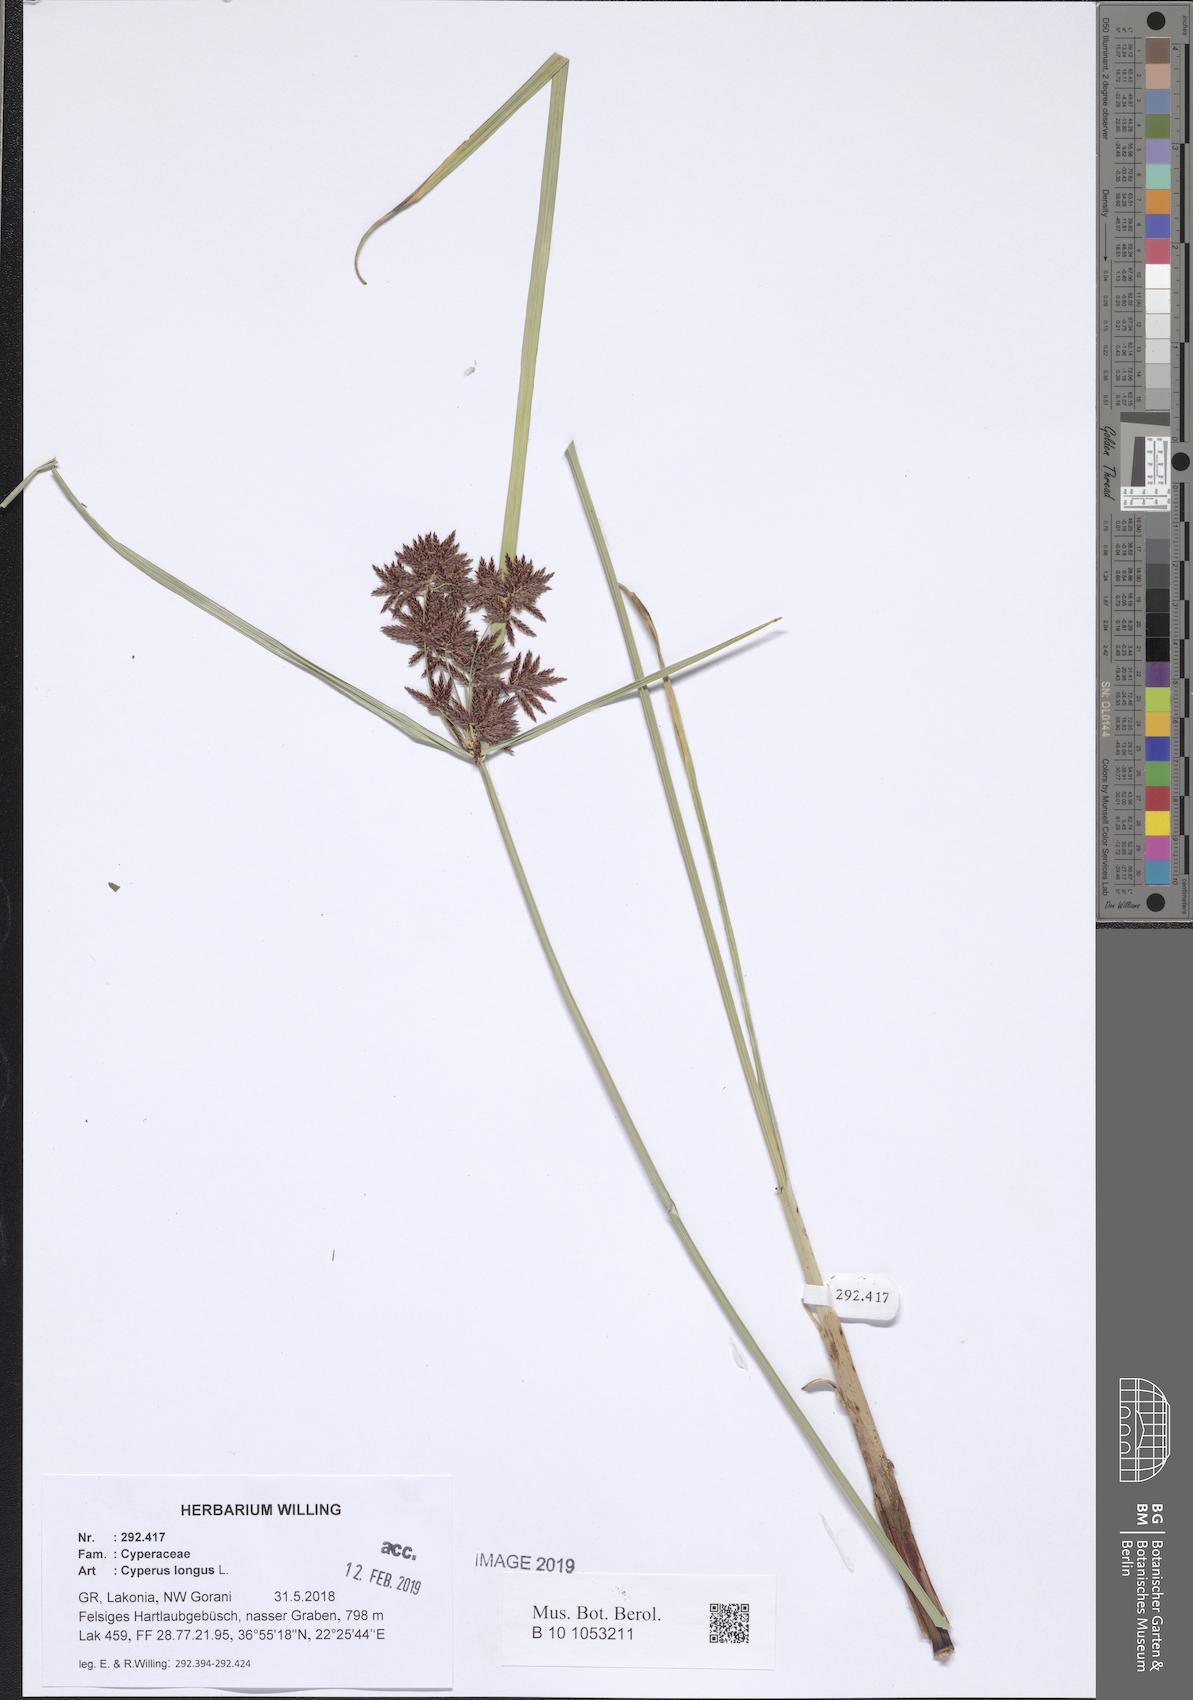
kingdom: Plantae
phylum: Tracheophyta
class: Liliopsida
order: Poales
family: Cyperaceae
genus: Cyperus
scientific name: Cyperus longus
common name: Galingale
